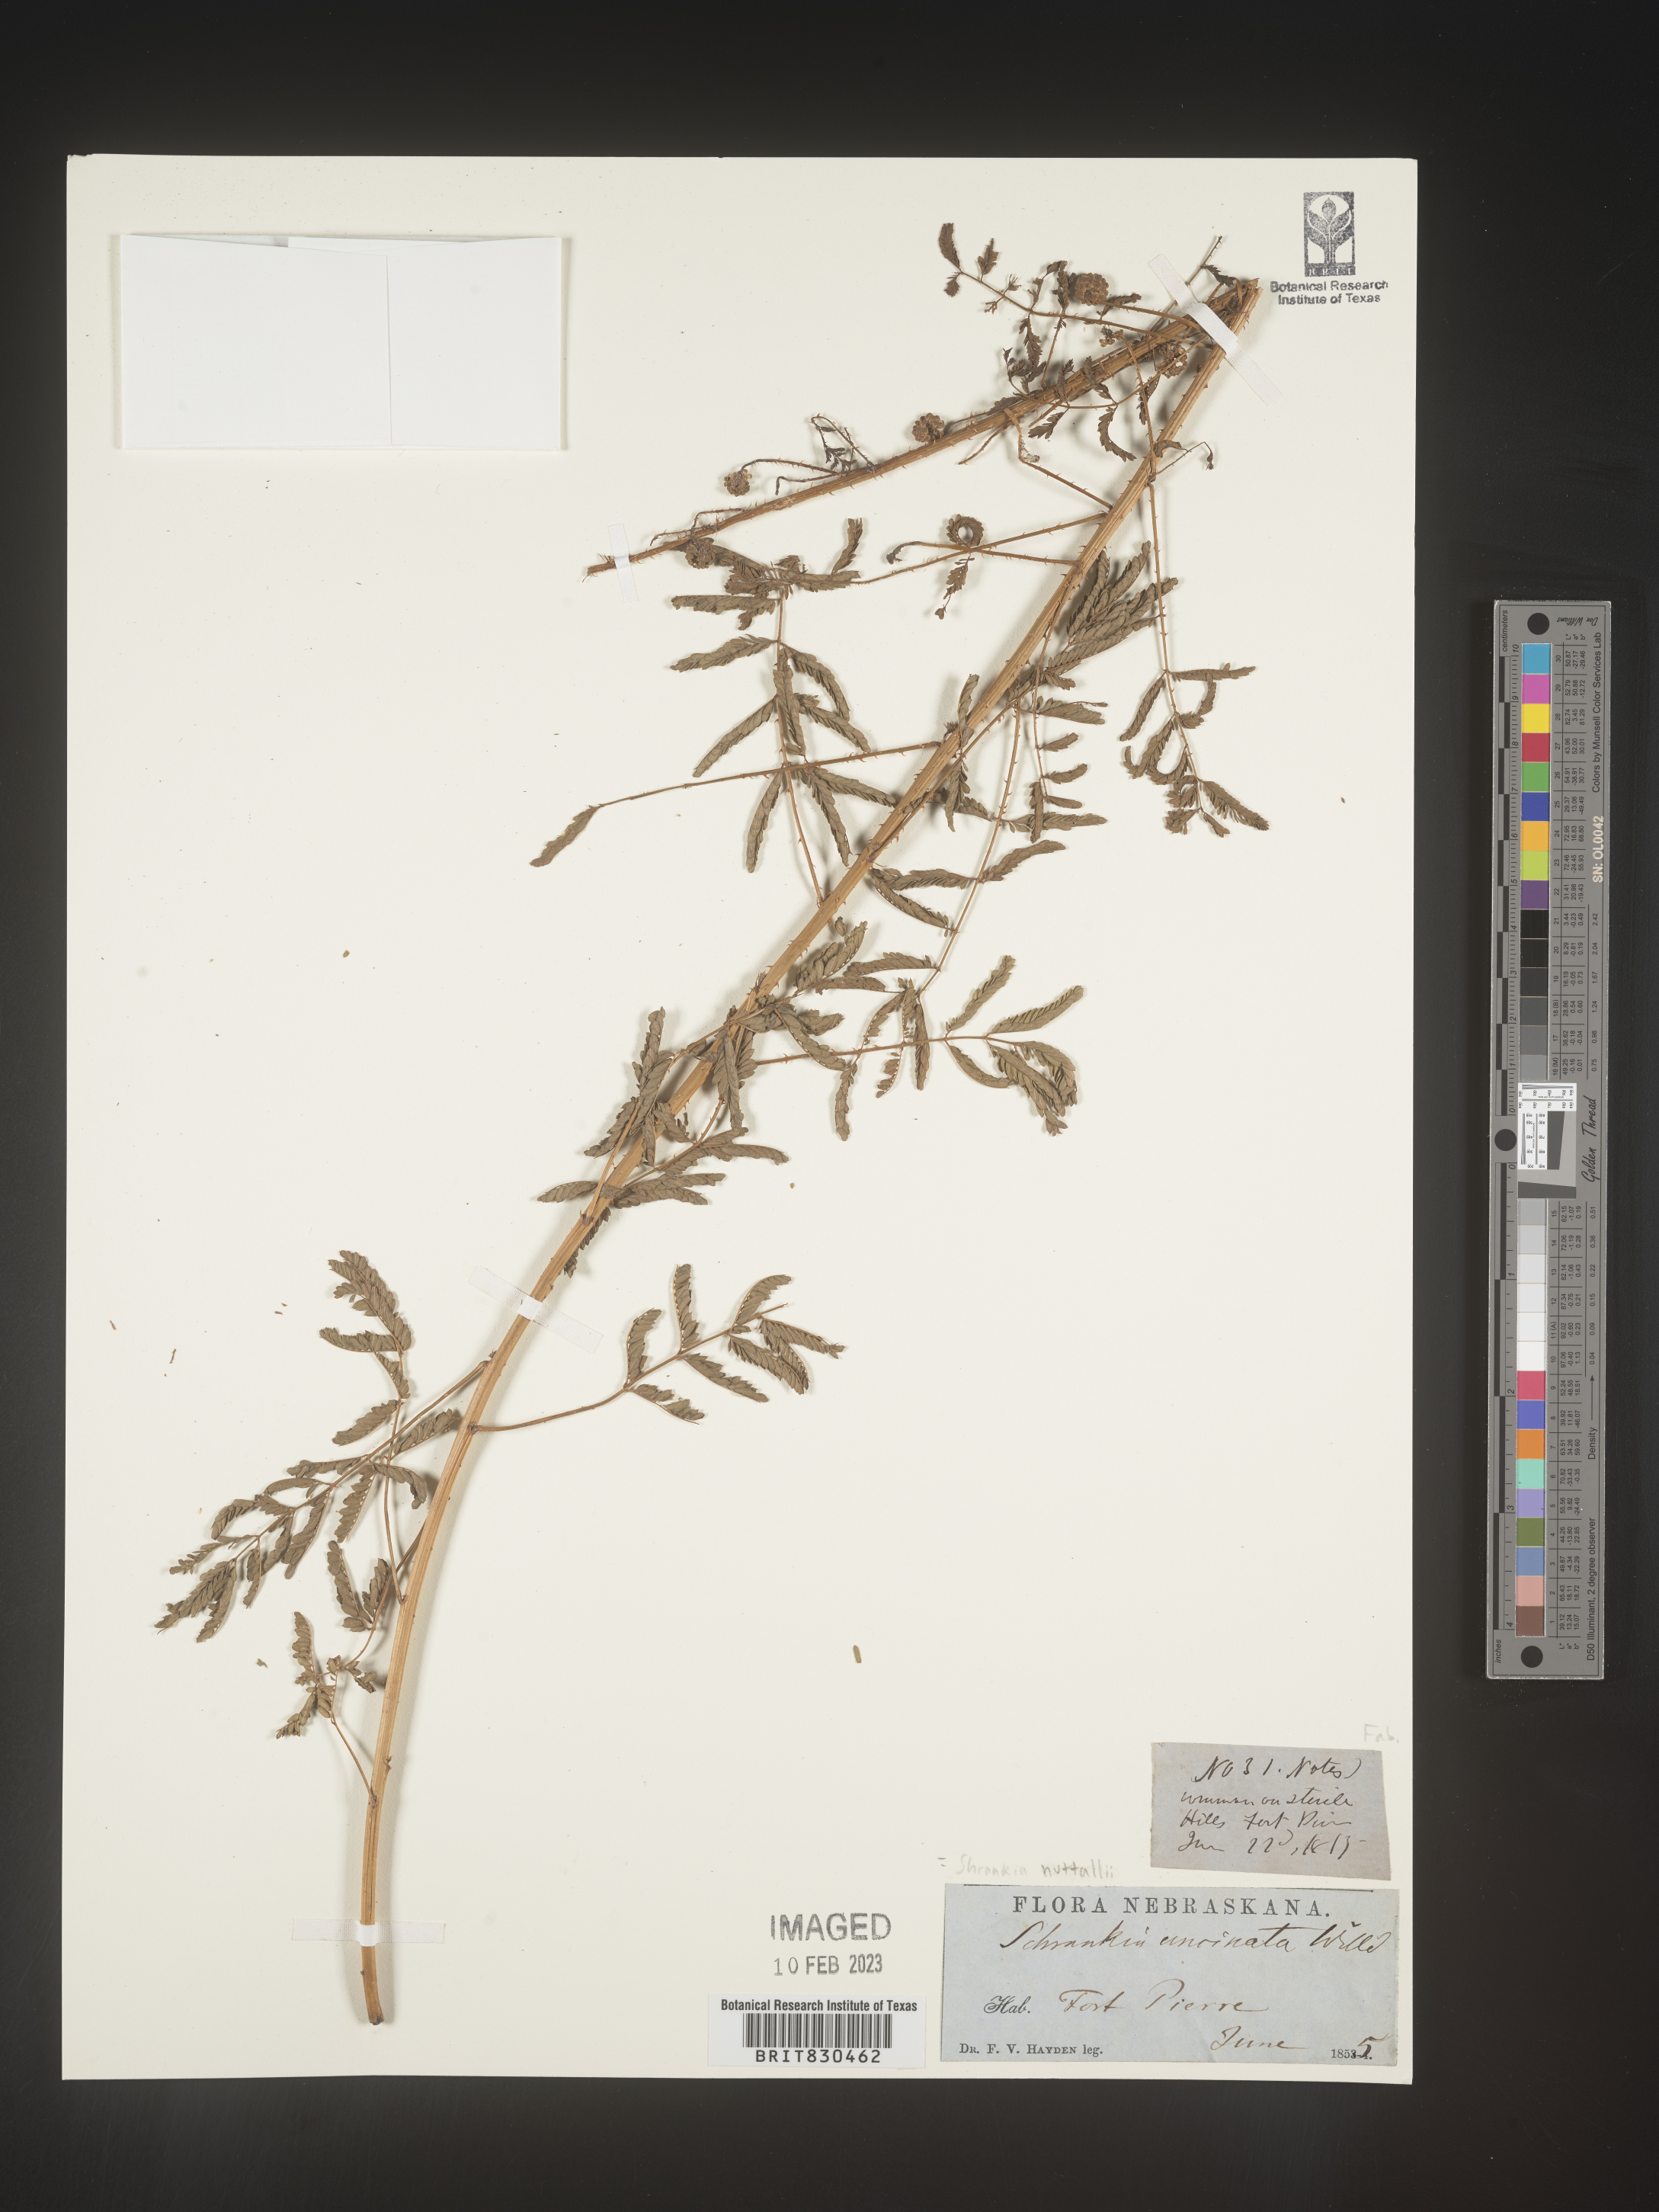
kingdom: Plantae
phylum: Tracheophyta
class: Magnoliopsida
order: Fabales
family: Fabaceae
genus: Mimosa
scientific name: Mimosa quadrivalvis
